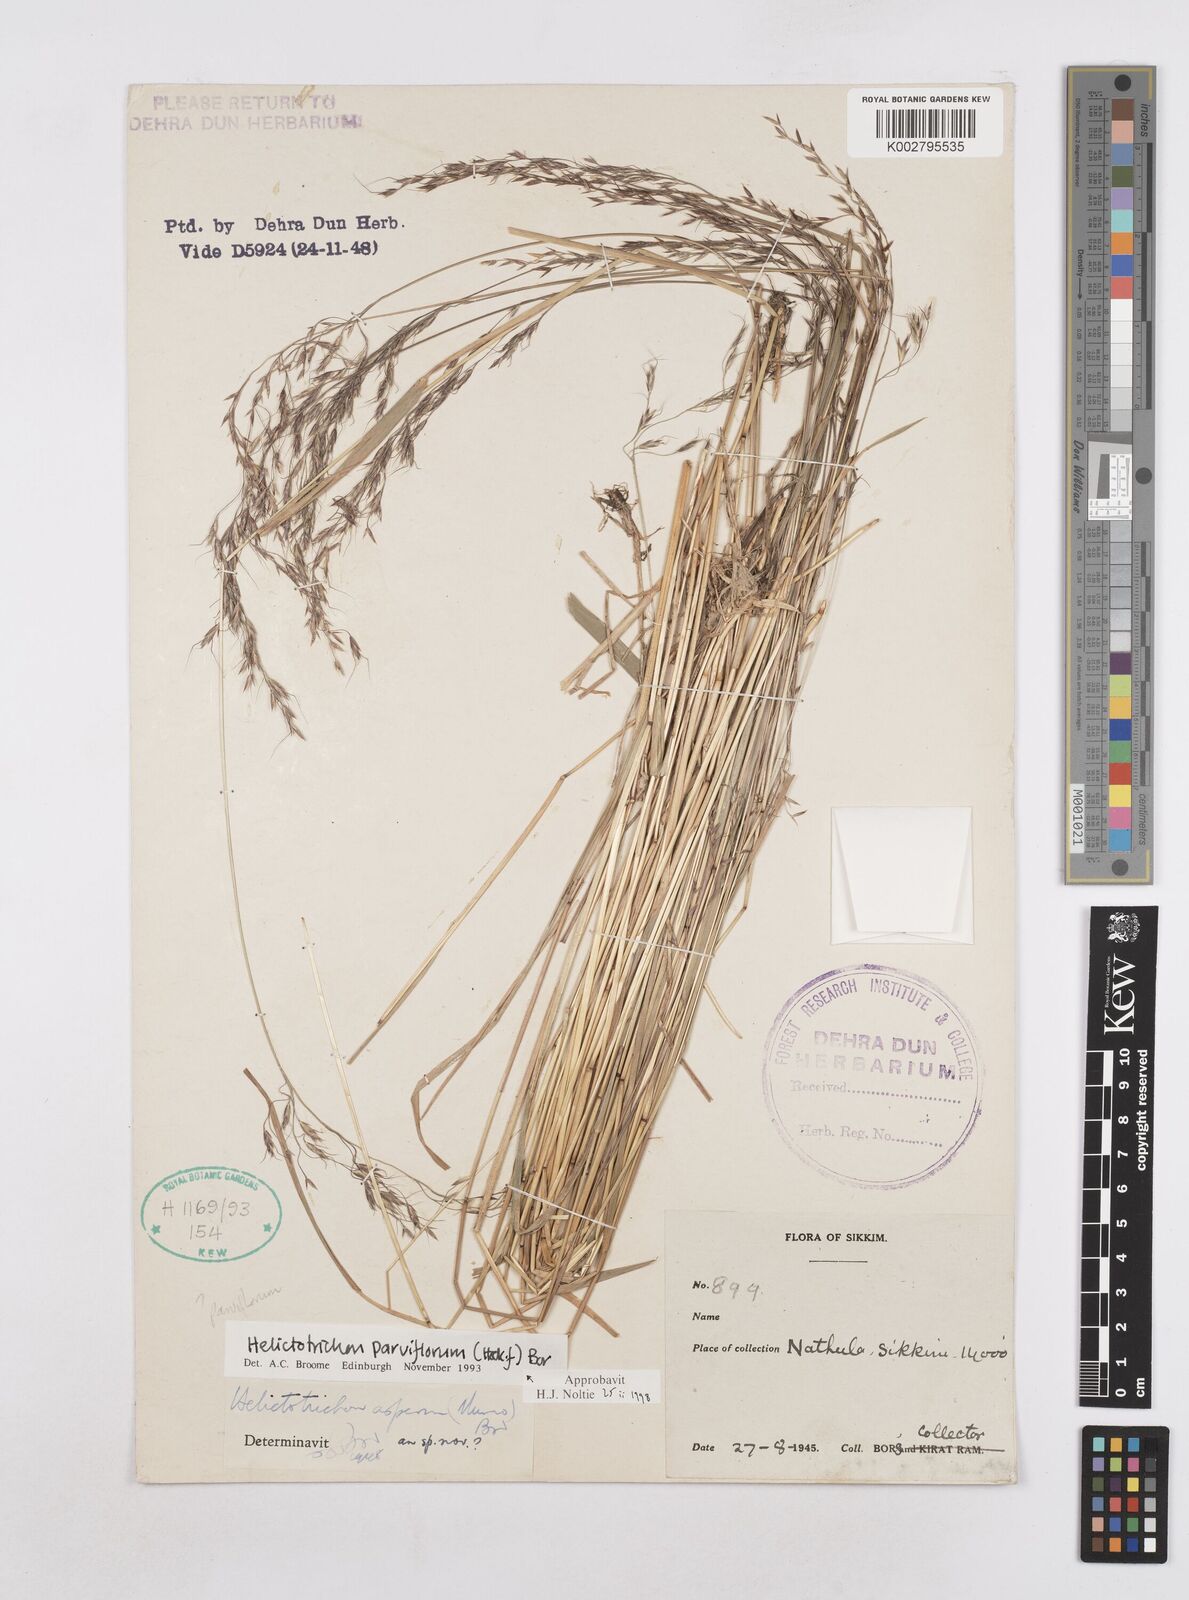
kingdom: Plantae
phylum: Tracheophyta
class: Liliopsida
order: Poales
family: Poaceae
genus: Trisetopsis
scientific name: Trisetopsis junghuhnii
